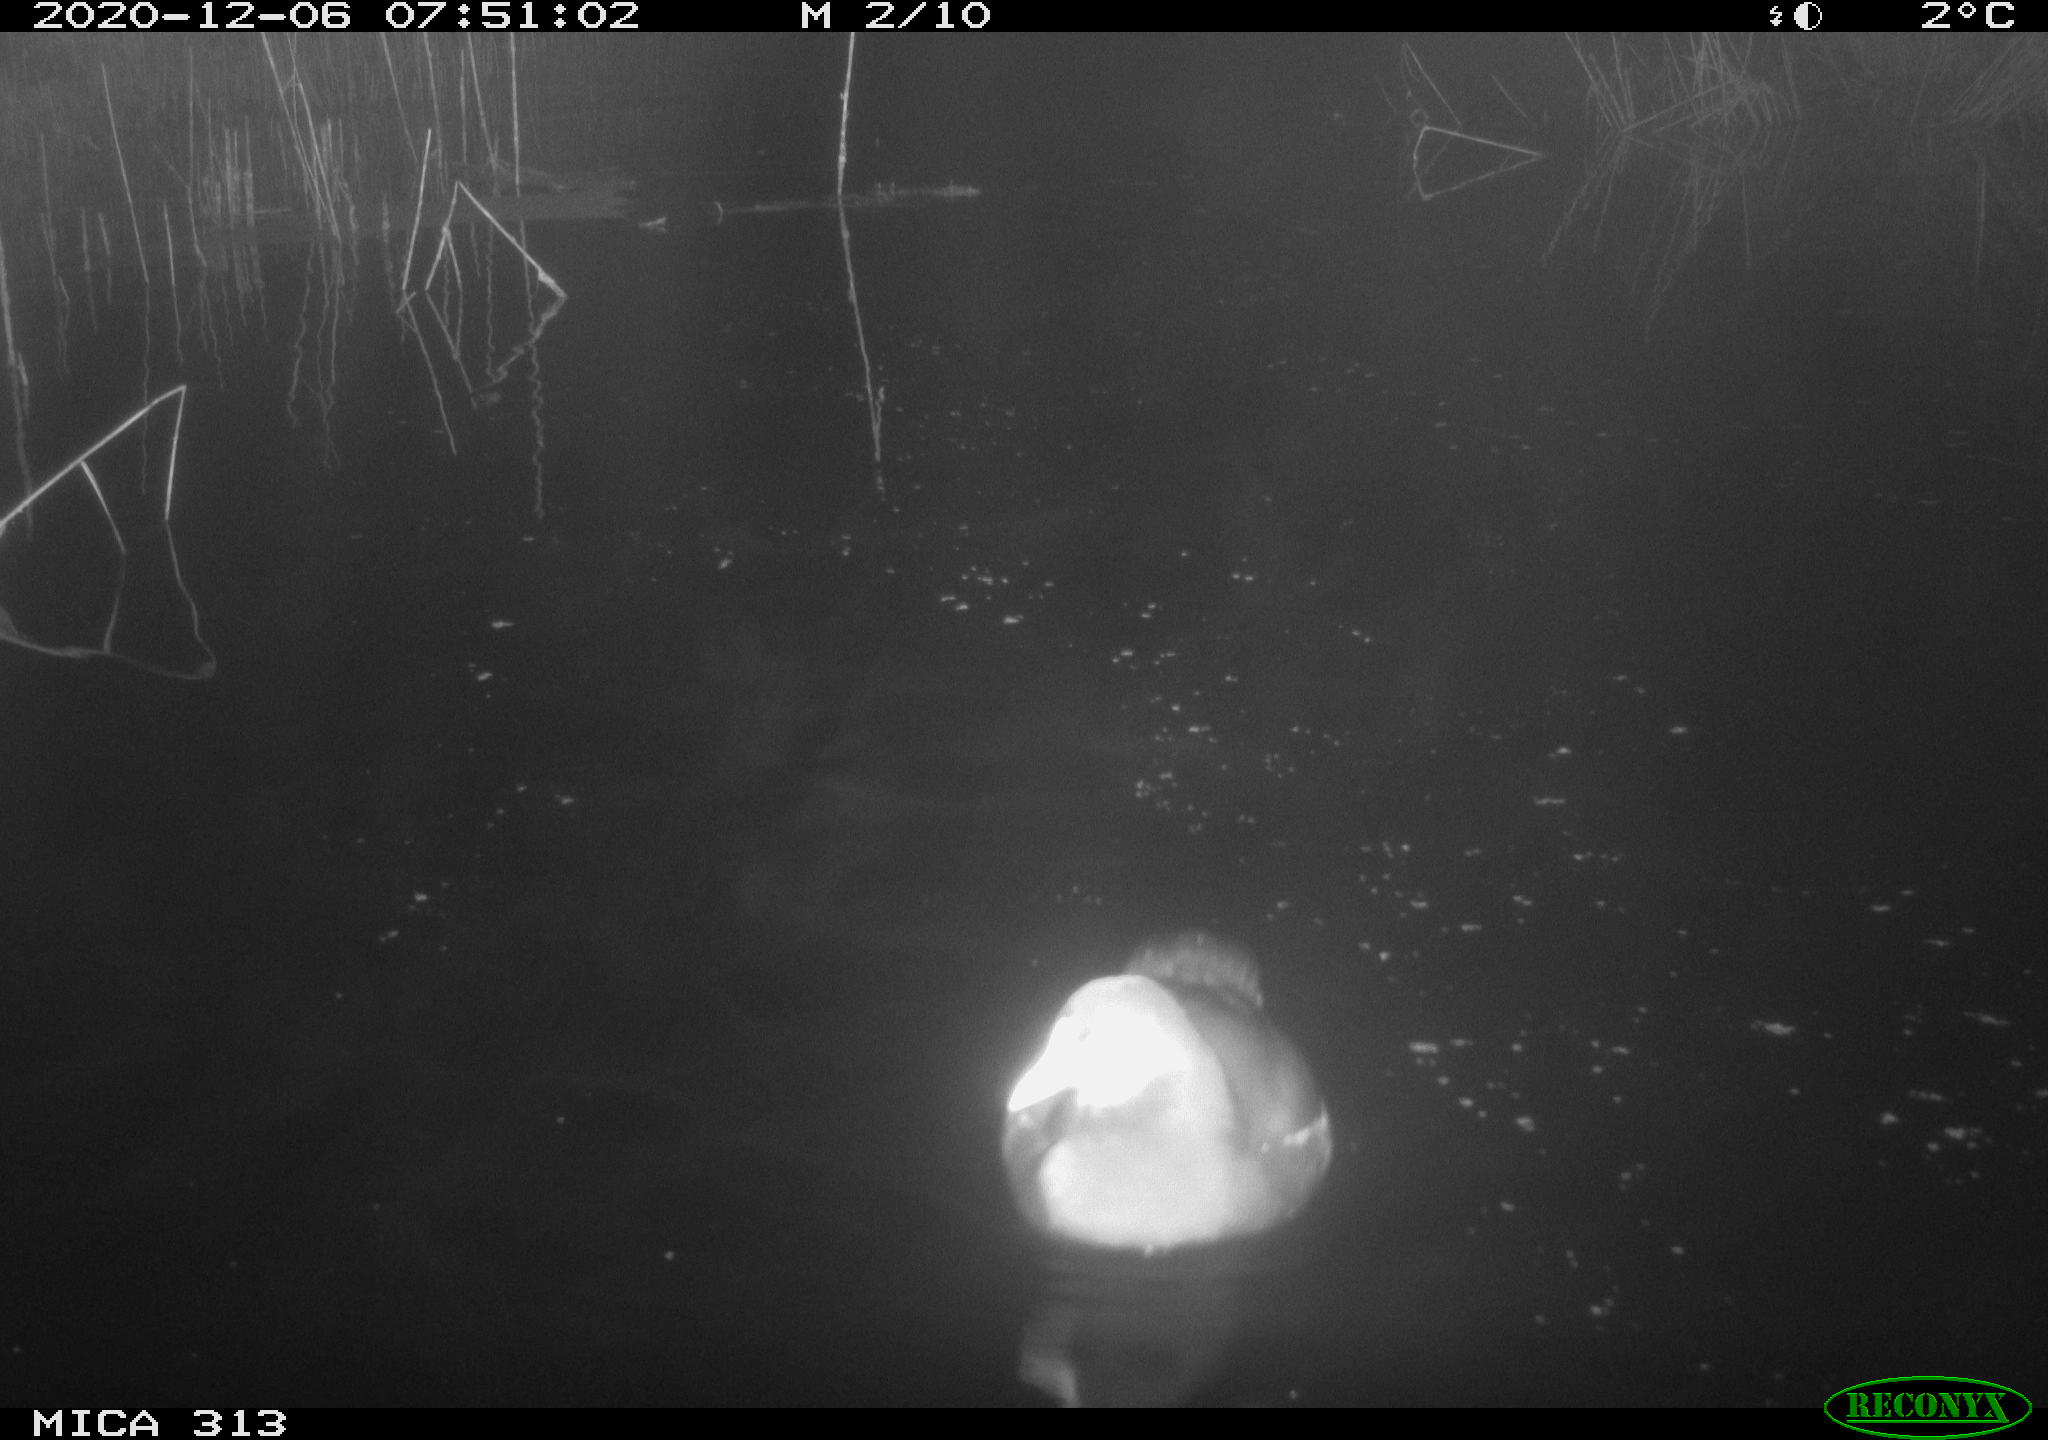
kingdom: Animalia
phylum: Chordata
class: Aves
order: Gruiformes
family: Rallidae
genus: Gallinula
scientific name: Gallinula chloropus
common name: Common moorhen
